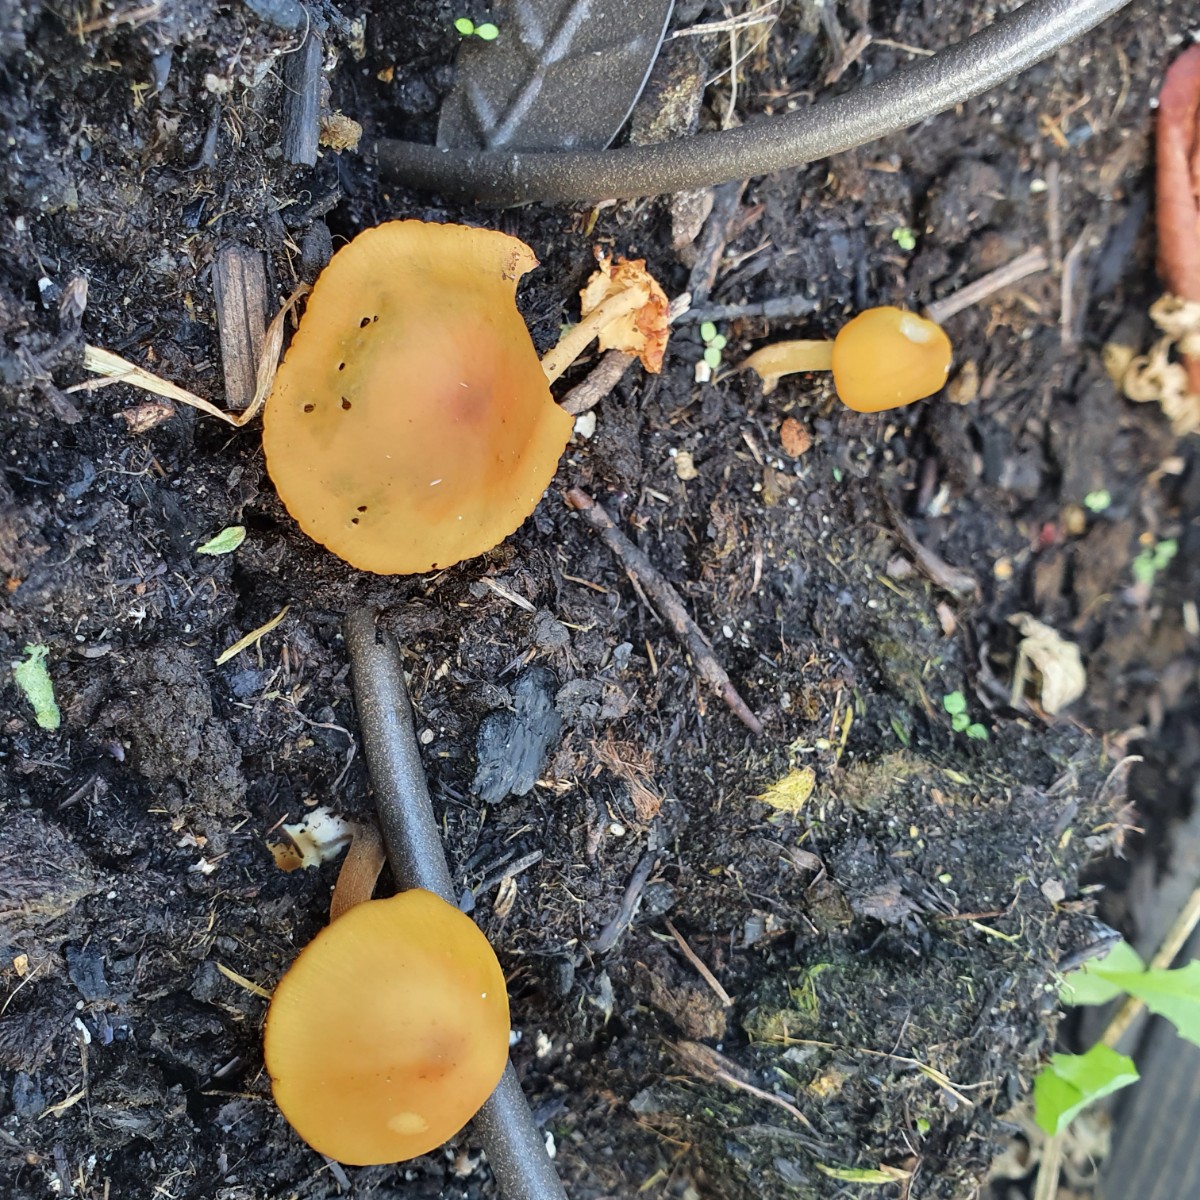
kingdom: Fungi
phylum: Basidiomycota
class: Agaricomycetes
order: Agaricales
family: Bolbitiaceae
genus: Conocybe
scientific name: Conocybe aurea
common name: gylden keglehat
